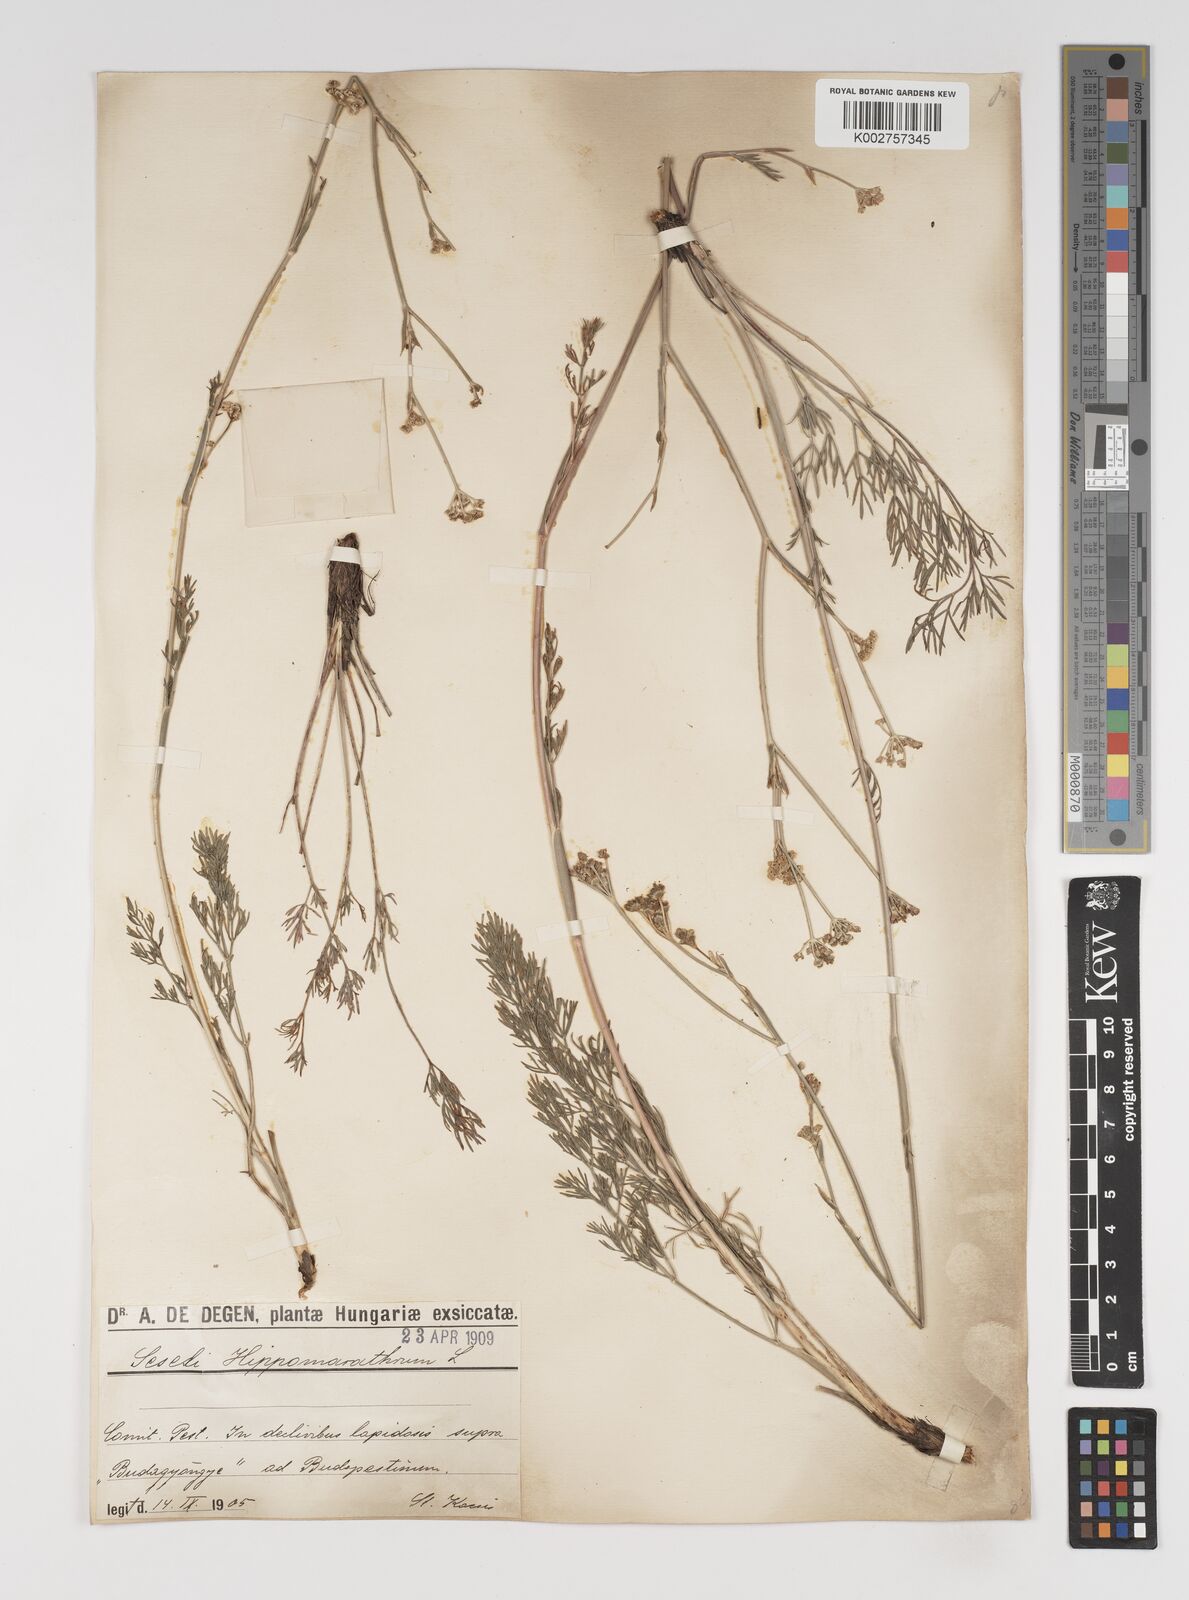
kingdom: Plantae
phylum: Tracheophyta
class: Magnoliopsida
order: Apiales
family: Apiaceae
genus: Seseli
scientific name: Seseli
